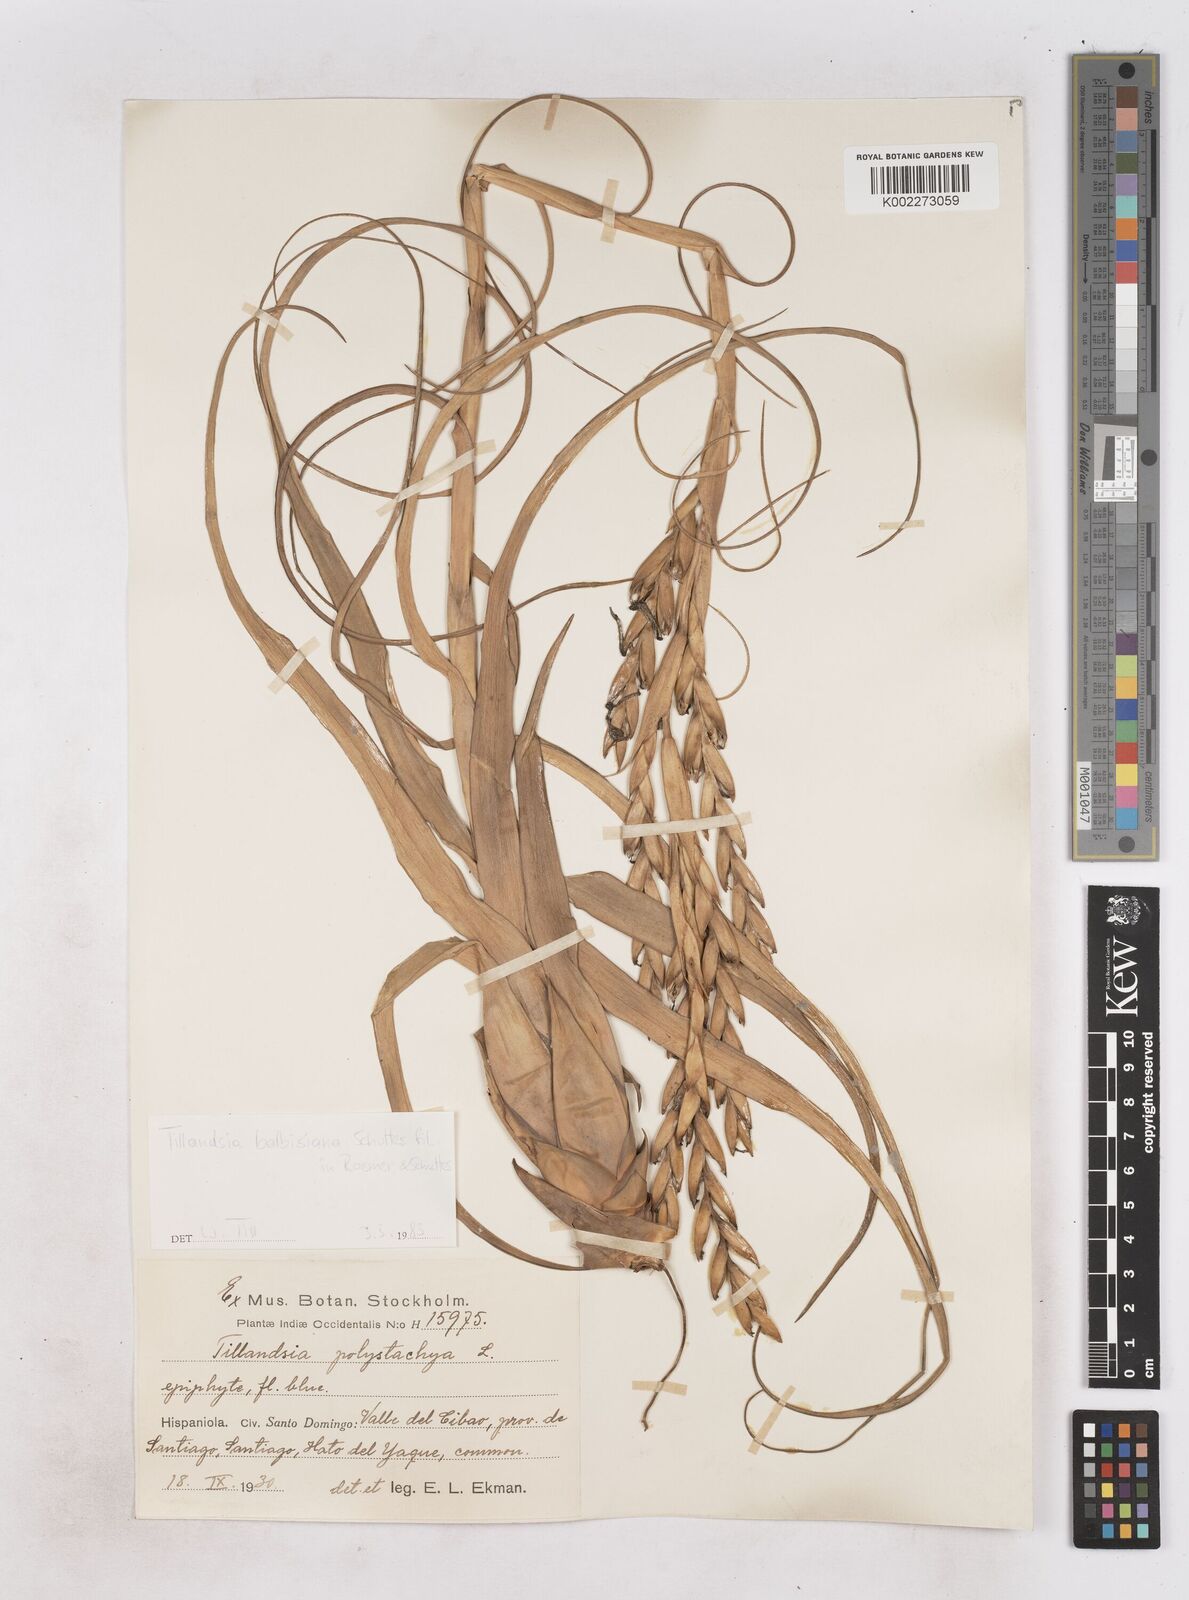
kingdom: Plantae
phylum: Tracheophyta
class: Liliopsida
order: Poales
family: Bromeliaceae
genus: Tillandsia
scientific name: Tillandsia balbisiana
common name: Northern needleleaf
